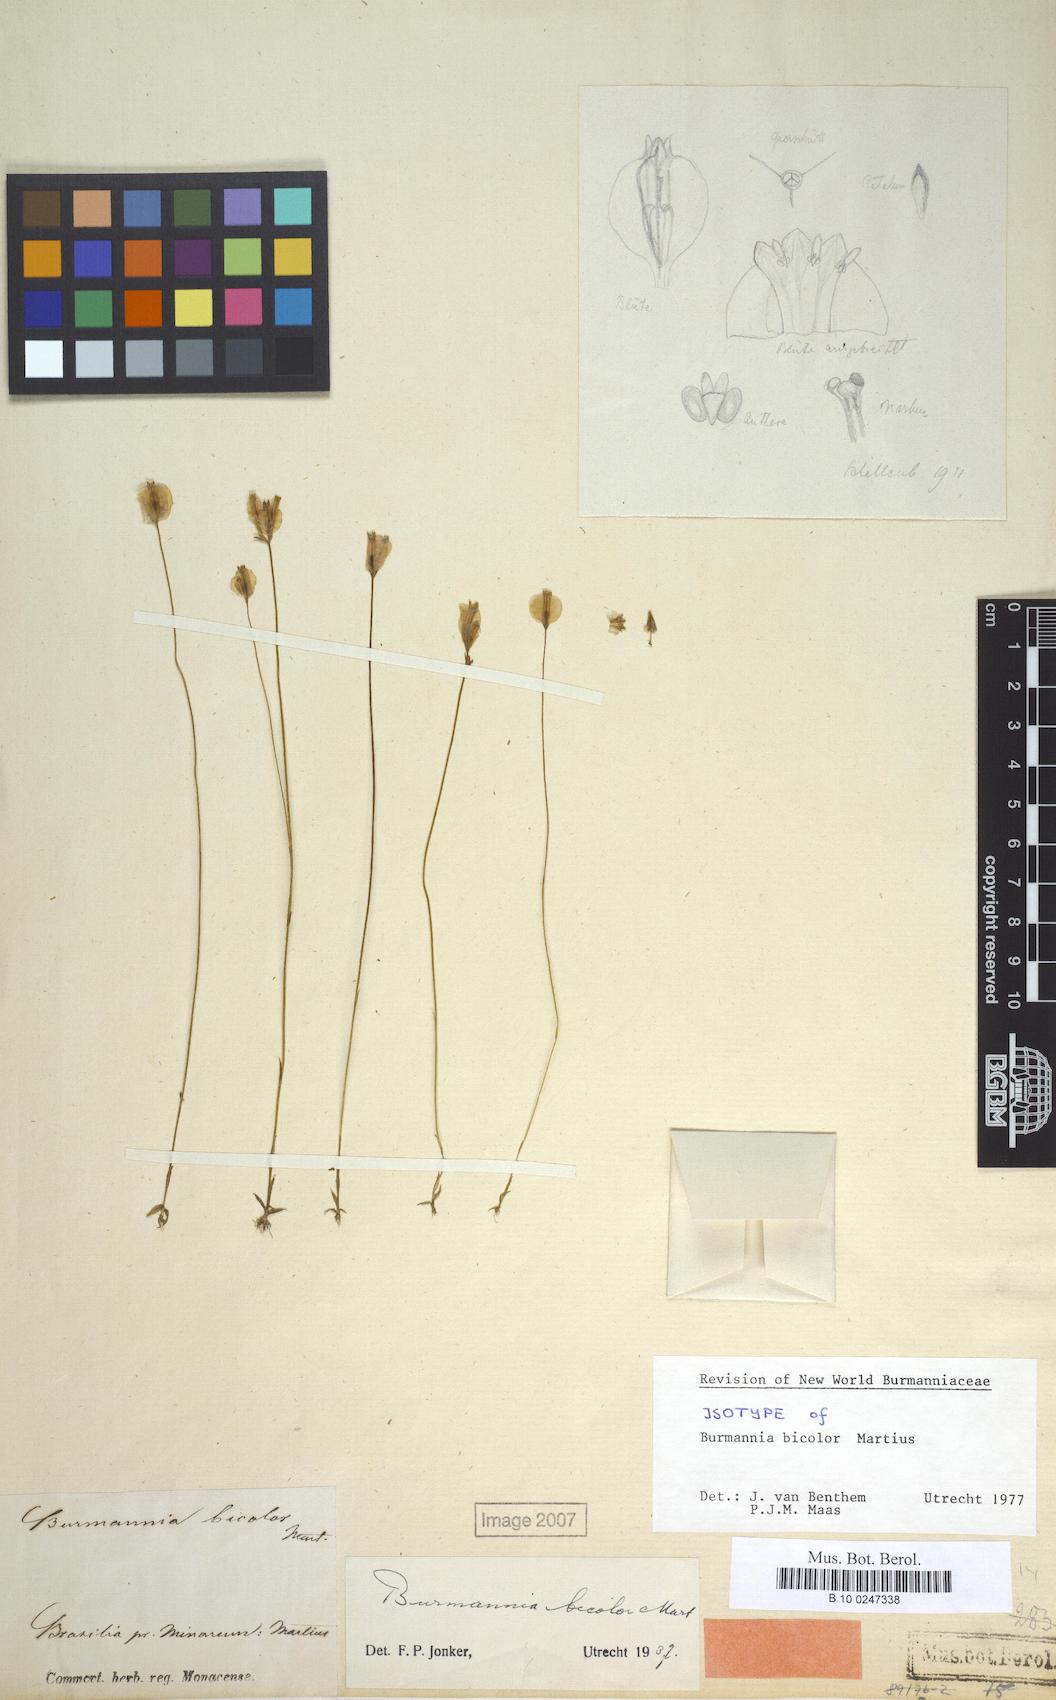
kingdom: Plantae
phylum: Tracheophyta
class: Liliopsida
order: Dioscoreales
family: Burmanniaceae
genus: Burmannia
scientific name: Burmannia bicolor
